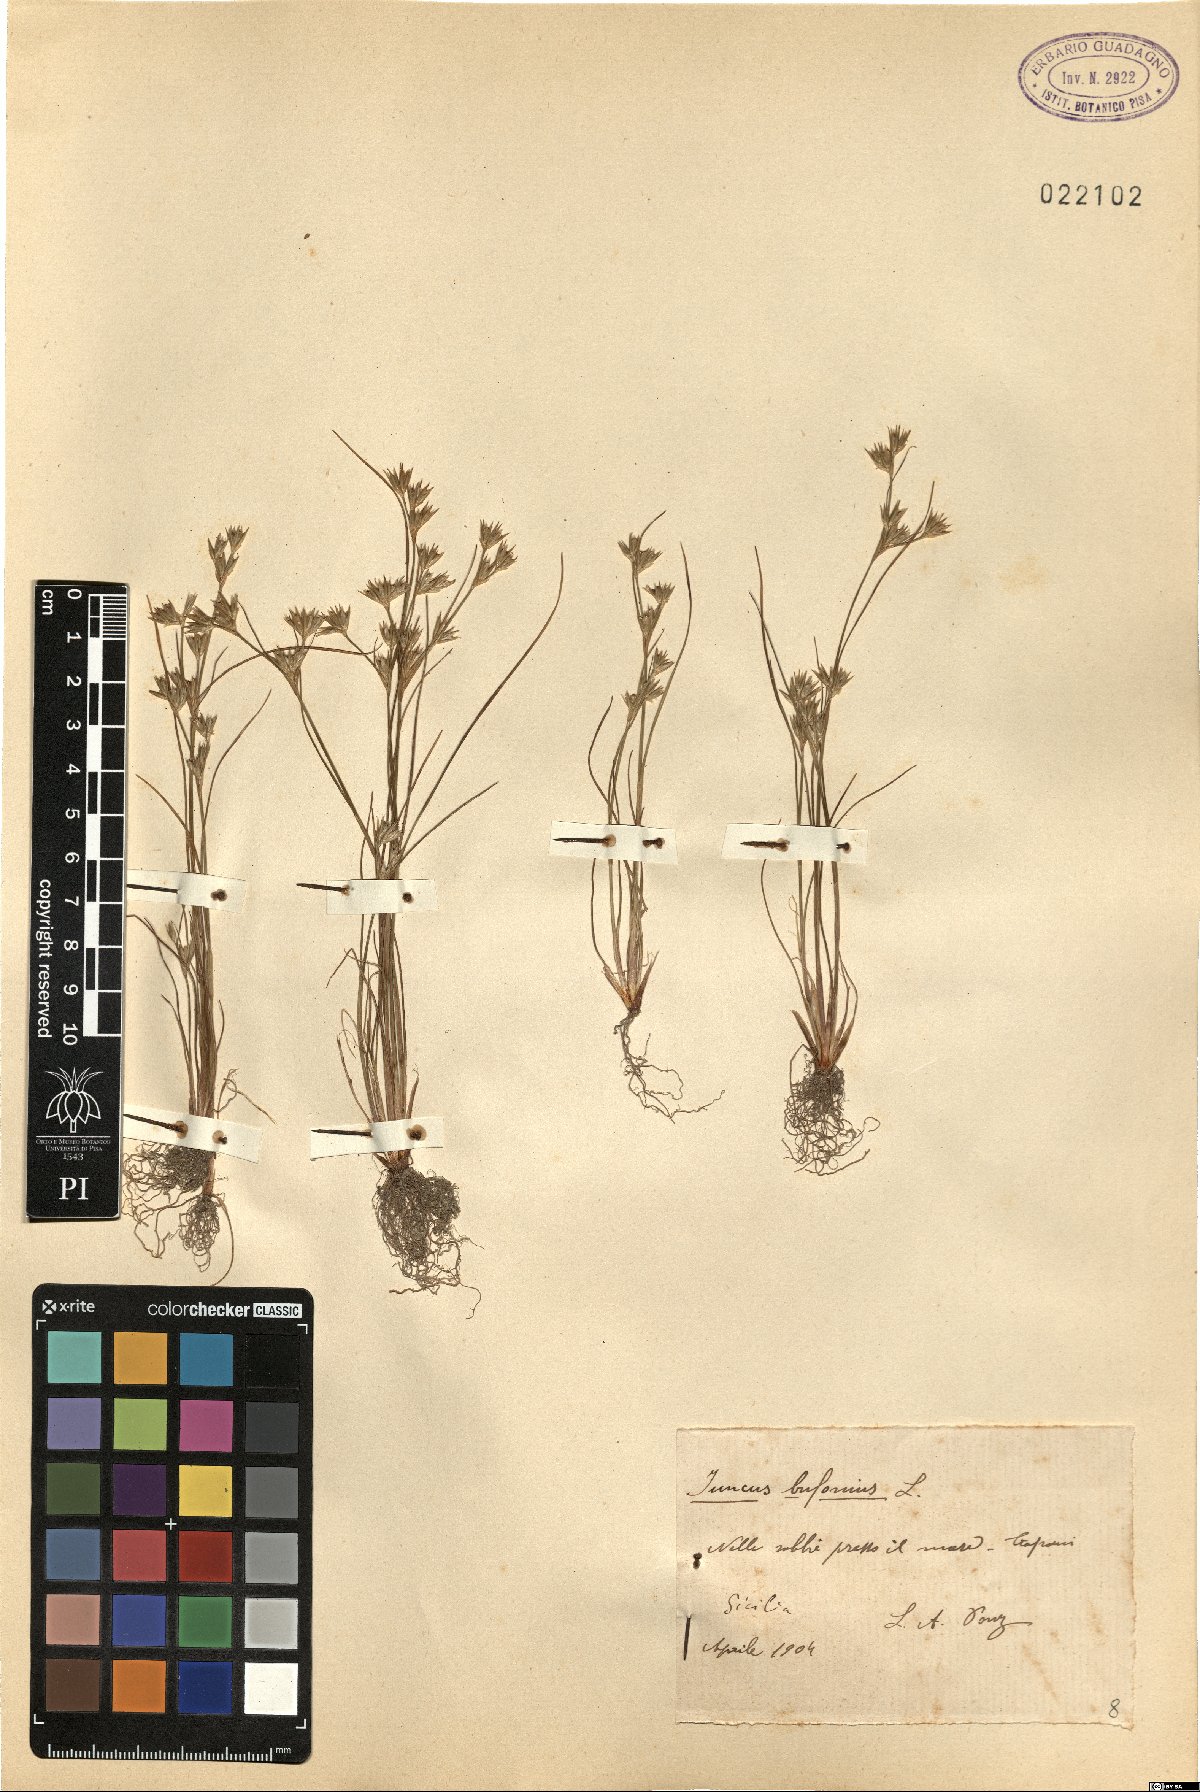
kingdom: Plantae
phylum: Tracheophyta
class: Liliopsida
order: Poales
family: Juncaceae
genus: Juncus
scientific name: Juncus bufonius
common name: Toad rush
